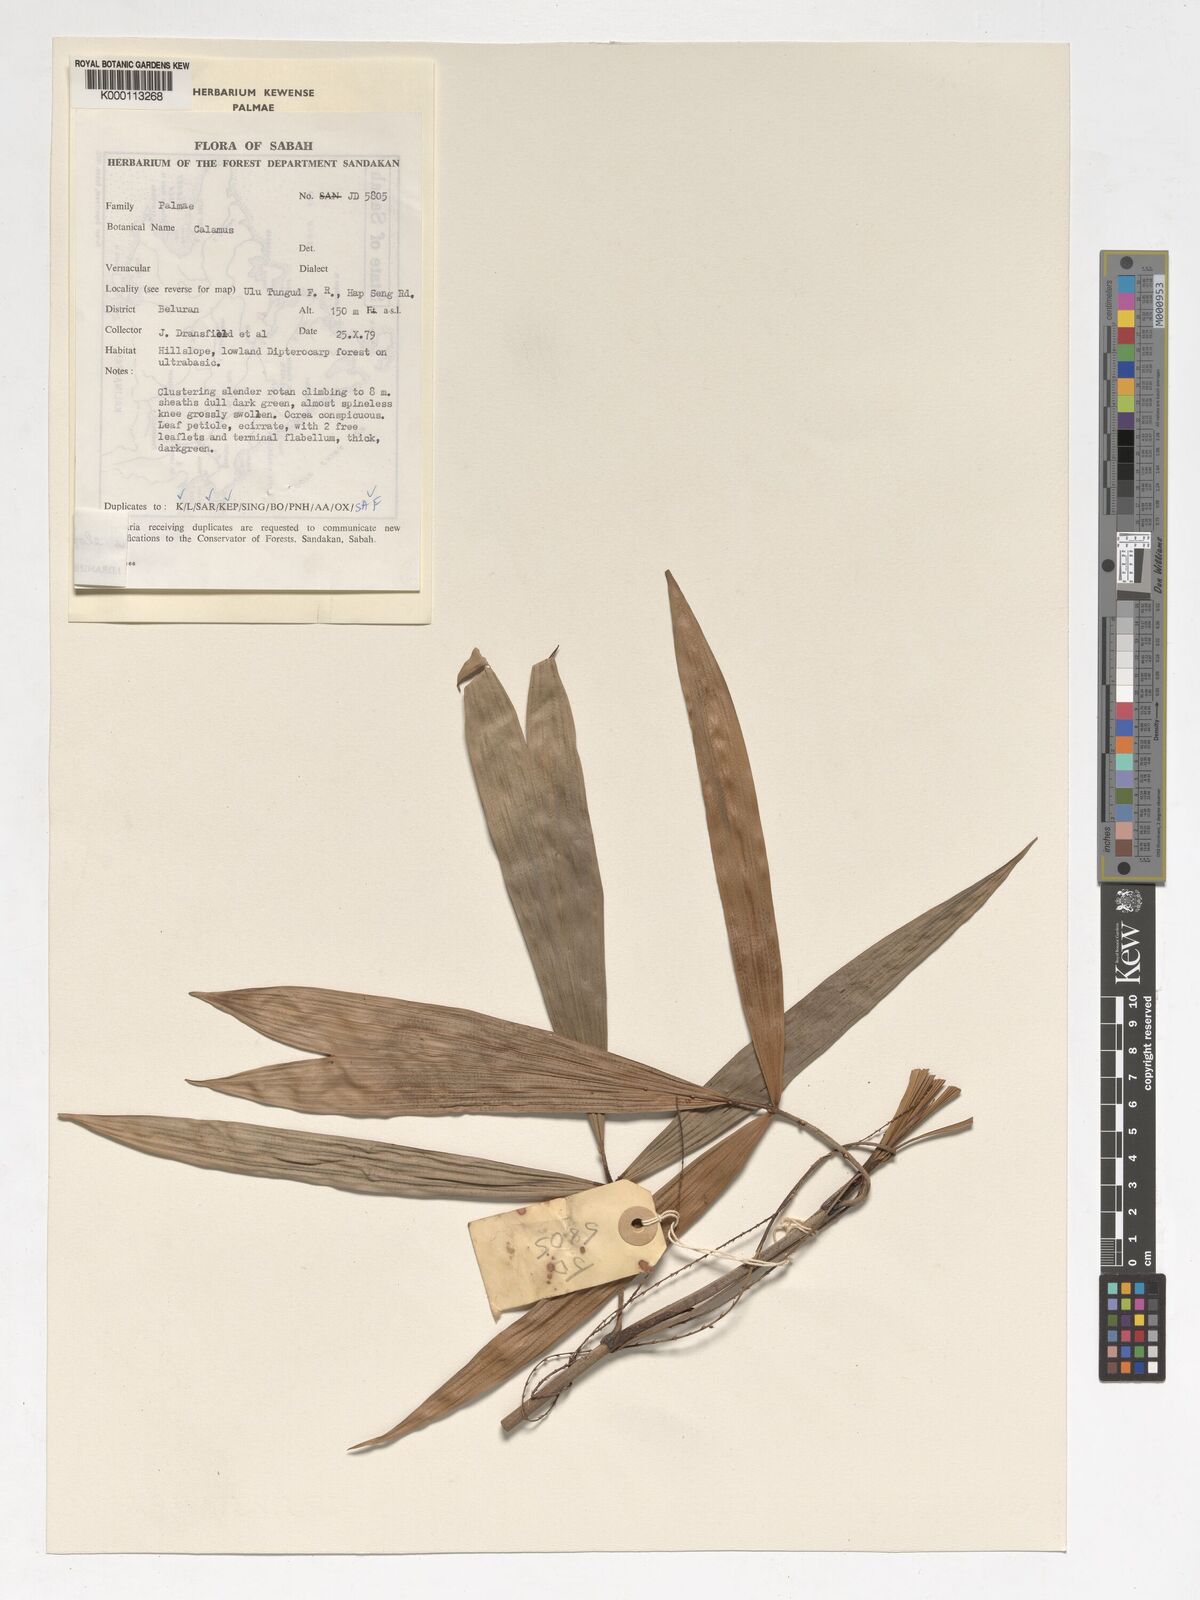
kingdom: Plantae
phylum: Tracheophyta
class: Liliopsida
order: Arecales
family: Arecaceae
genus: Calamus
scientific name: Calamus javensis
